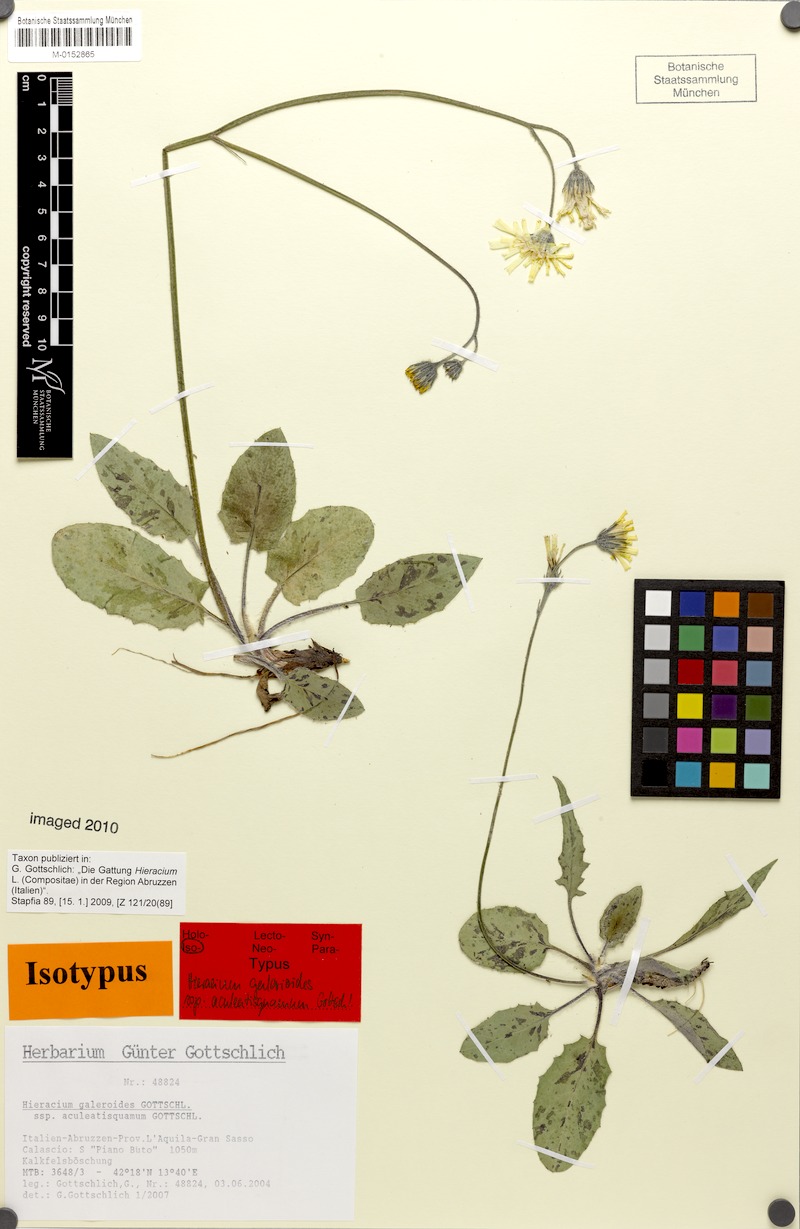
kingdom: Plantae
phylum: Tracheophyta
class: Magnoliopsida
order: Asterales
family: Asteraceae
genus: Hieracium
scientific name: Hieracium galeroides
